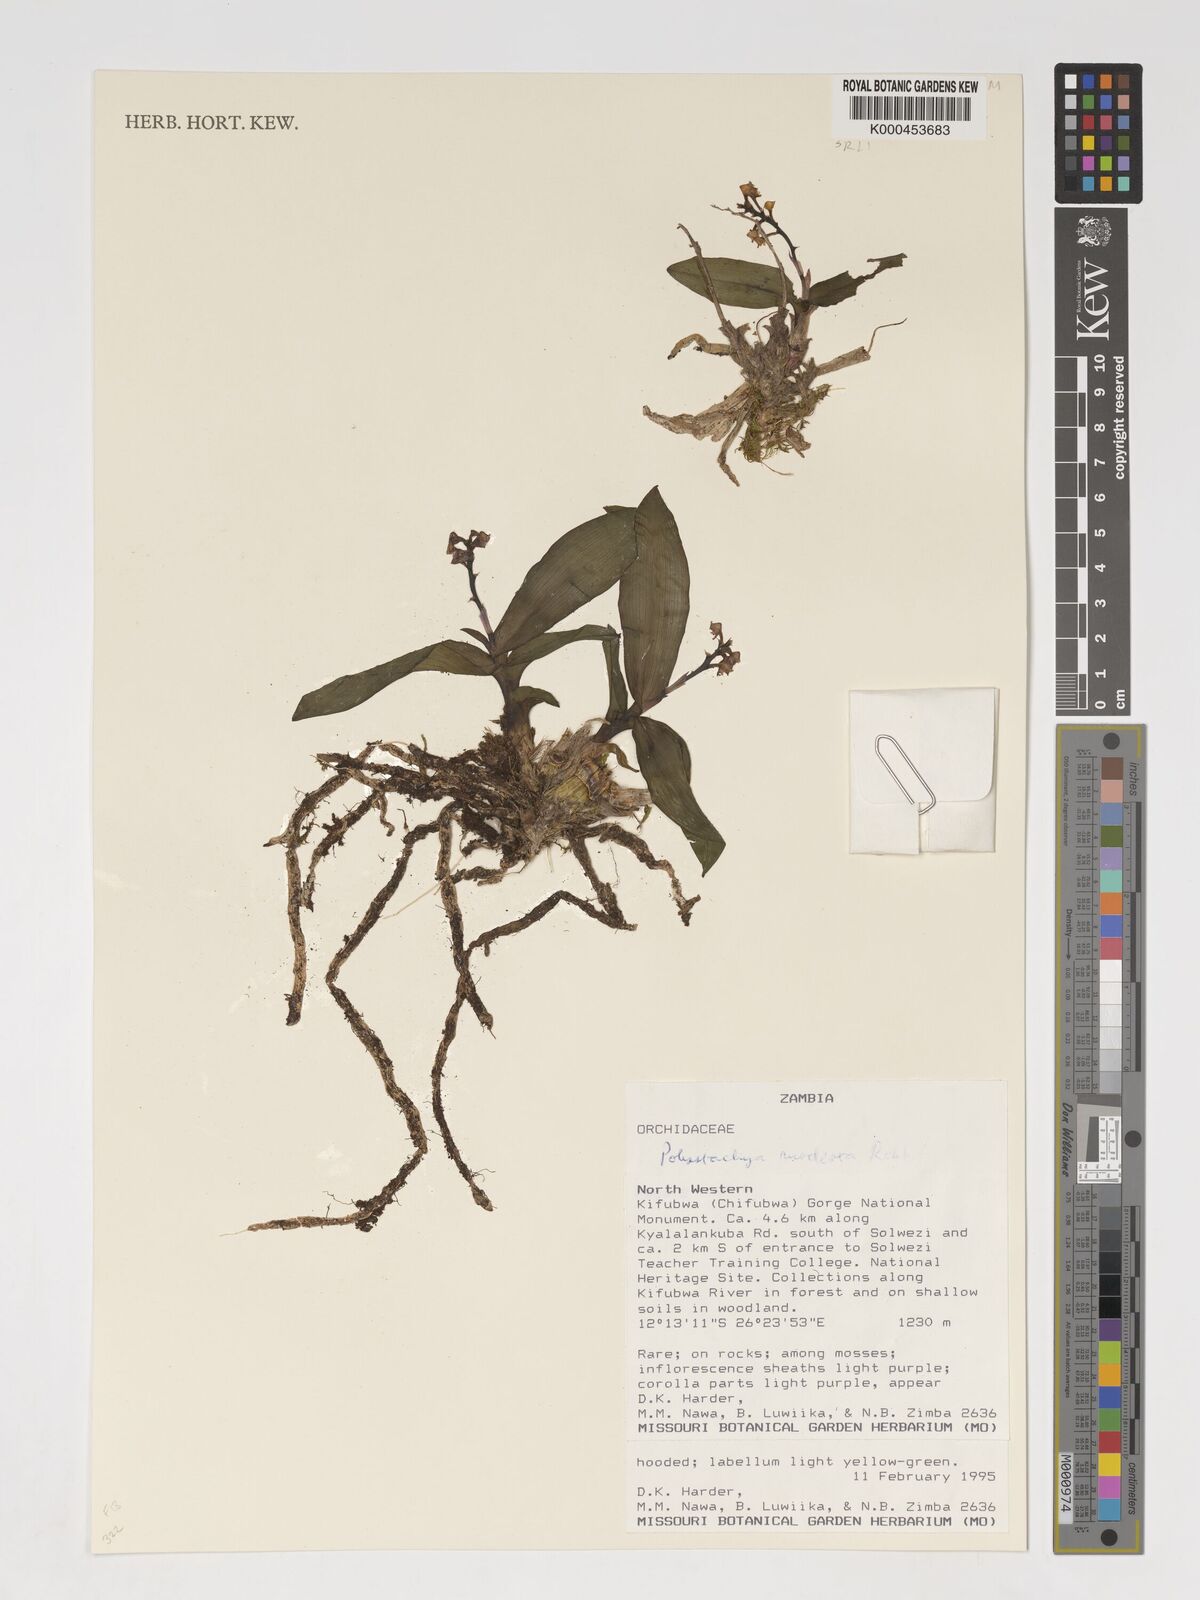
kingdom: Plantae
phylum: Tracheophyta
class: Liliopsida
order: Asparagales
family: Orchidaceae
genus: Polystachya
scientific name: Polystachya modesta
